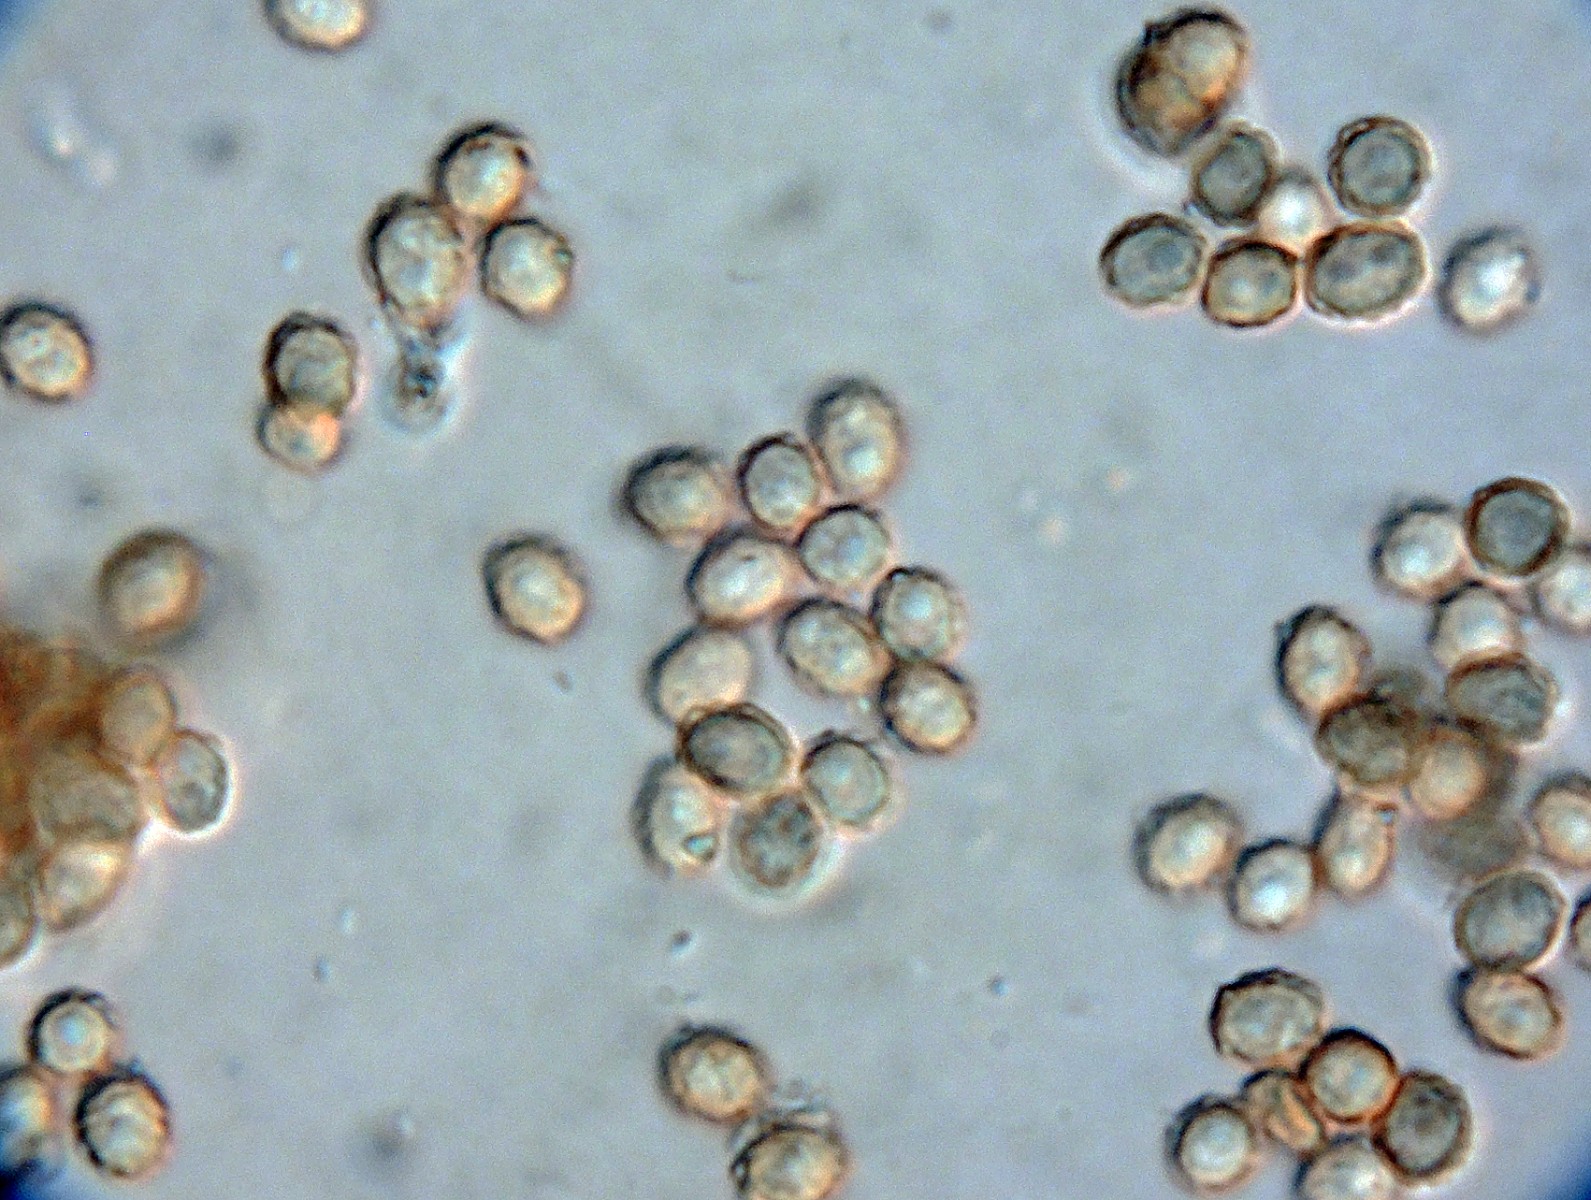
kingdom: Fungi
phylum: Ascomycota
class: Eurotiomycetes
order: Onygenales
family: Onygenaceae
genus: Aphanoascus
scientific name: Aphanoascus fulvescens
